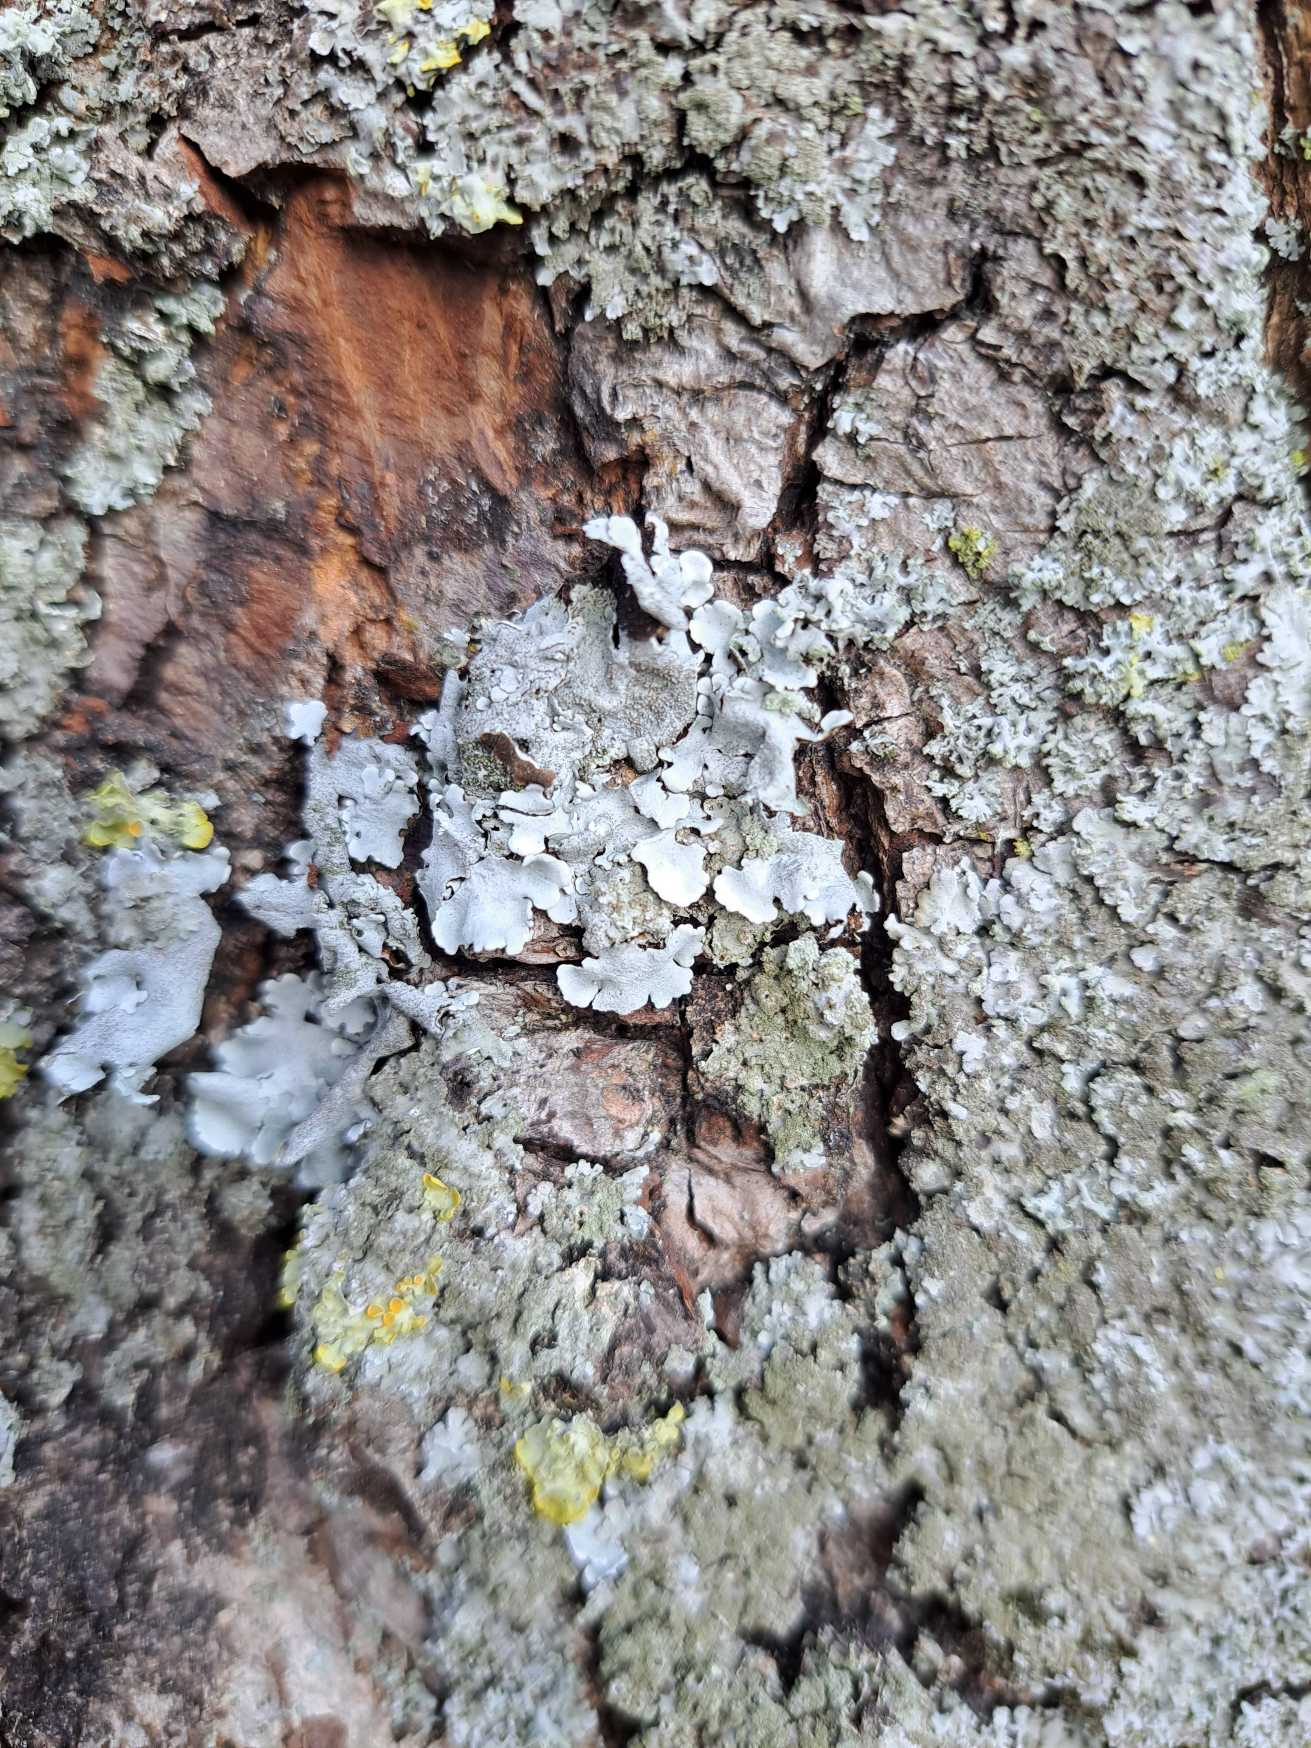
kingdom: Fungi
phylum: Ascomycota
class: Lecanoromycetes
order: Lecanorales
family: Parmeliaceae
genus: Parmelina
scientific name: Parmelina tiliacea
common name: Sølvgrå skållav
